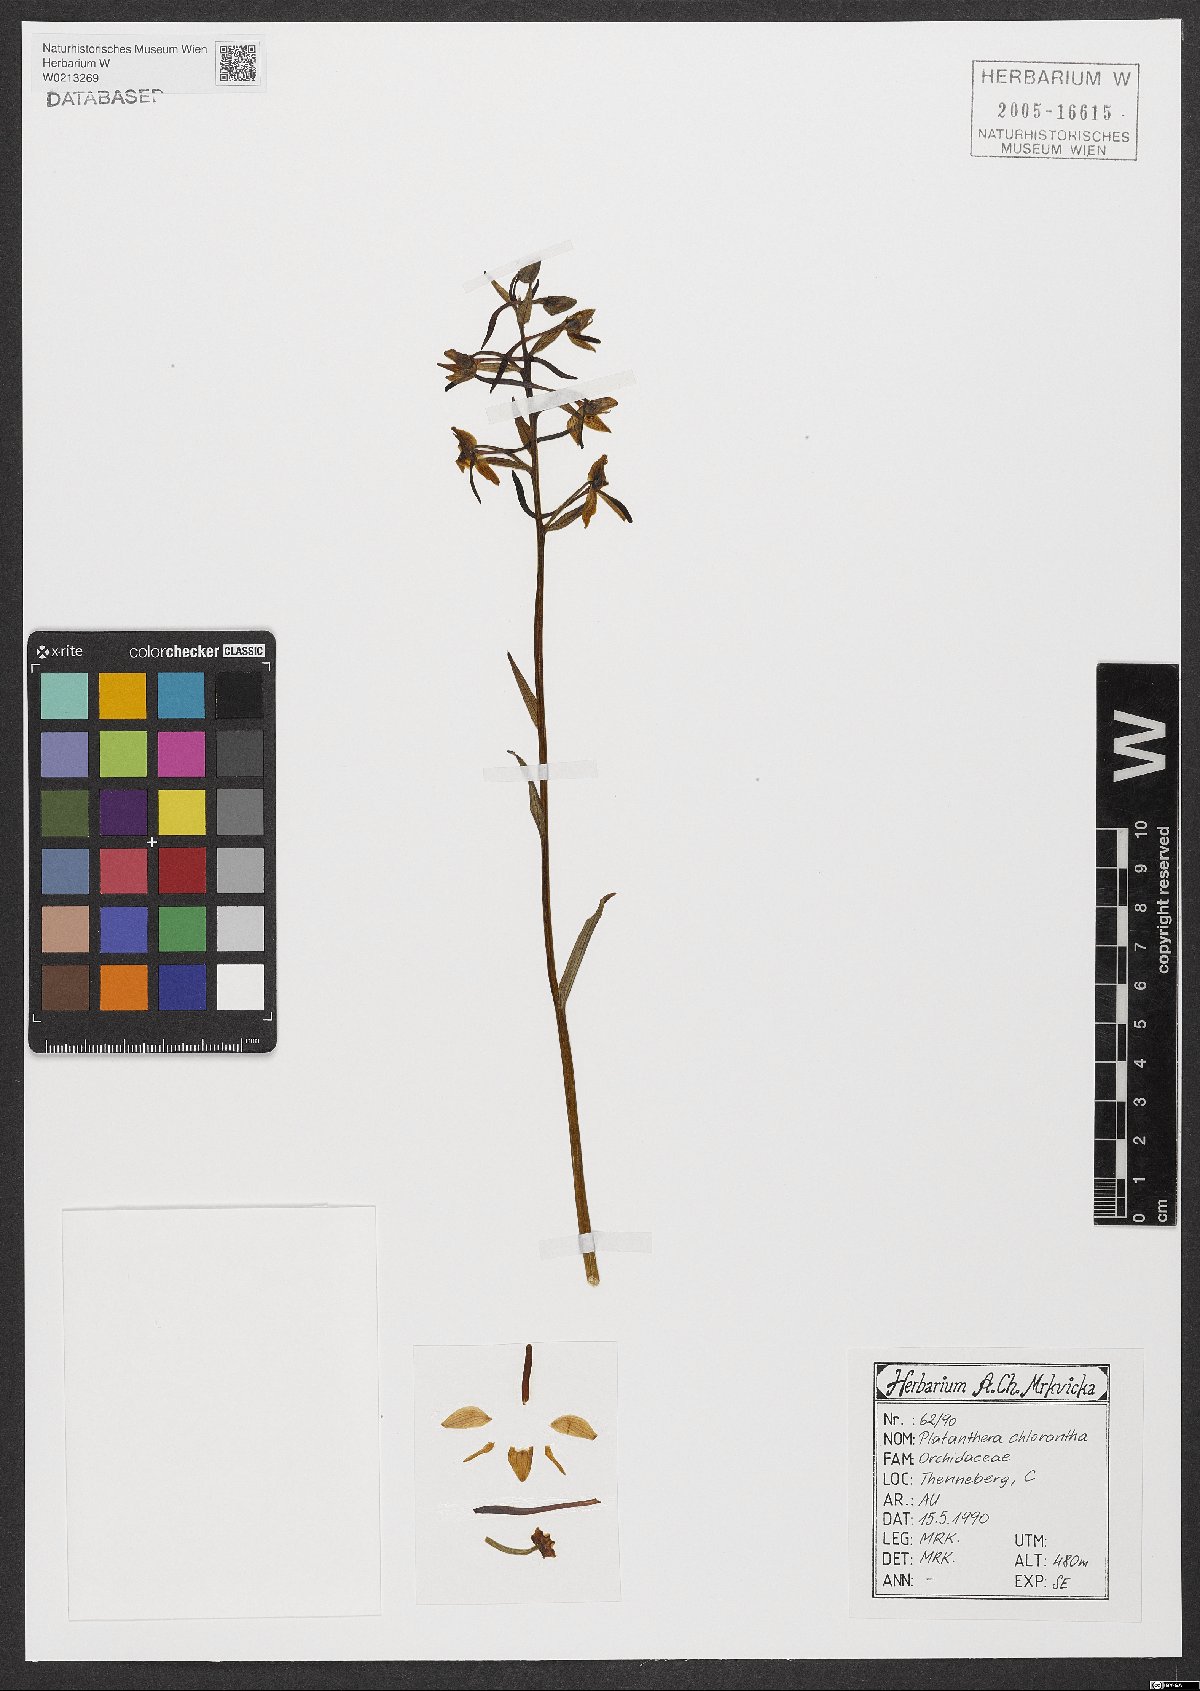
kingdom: Plantae
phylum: Tracheophyta
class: Liliopsida
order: Asparagales
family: Orchidaceae
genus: Platanthera
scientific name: Platanthera chlorantha
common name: Greater butterfly-orchid
